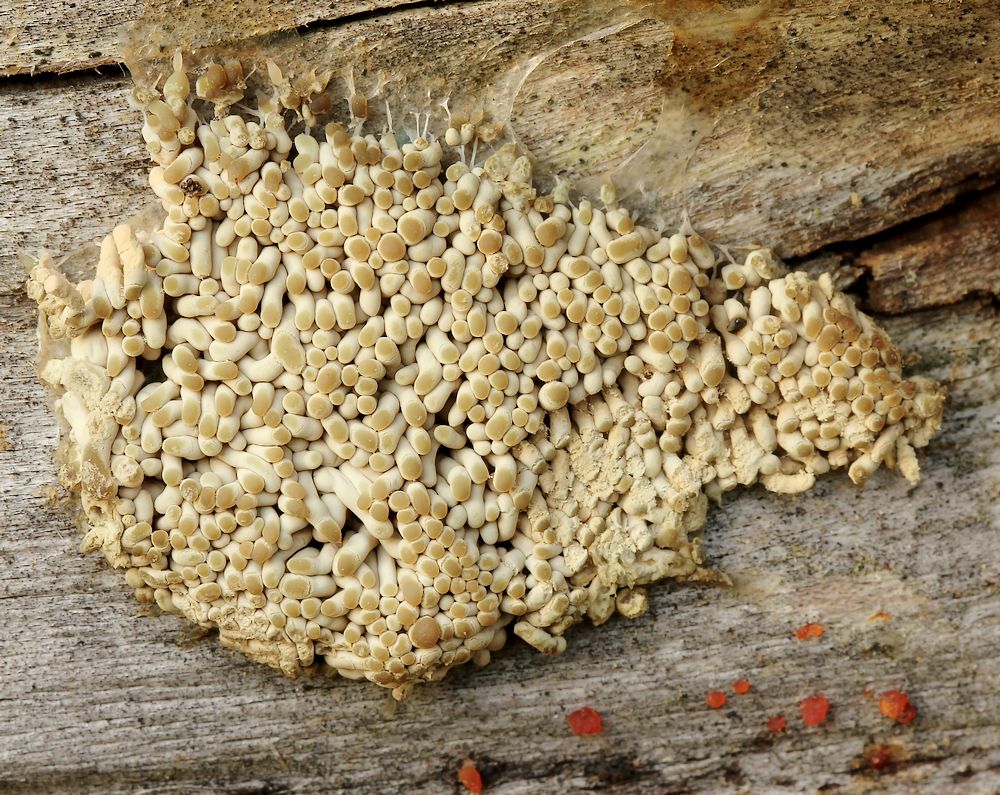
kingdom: Protozoa
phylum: Amoebozoa
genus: Arcyria
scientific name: Arcyria
